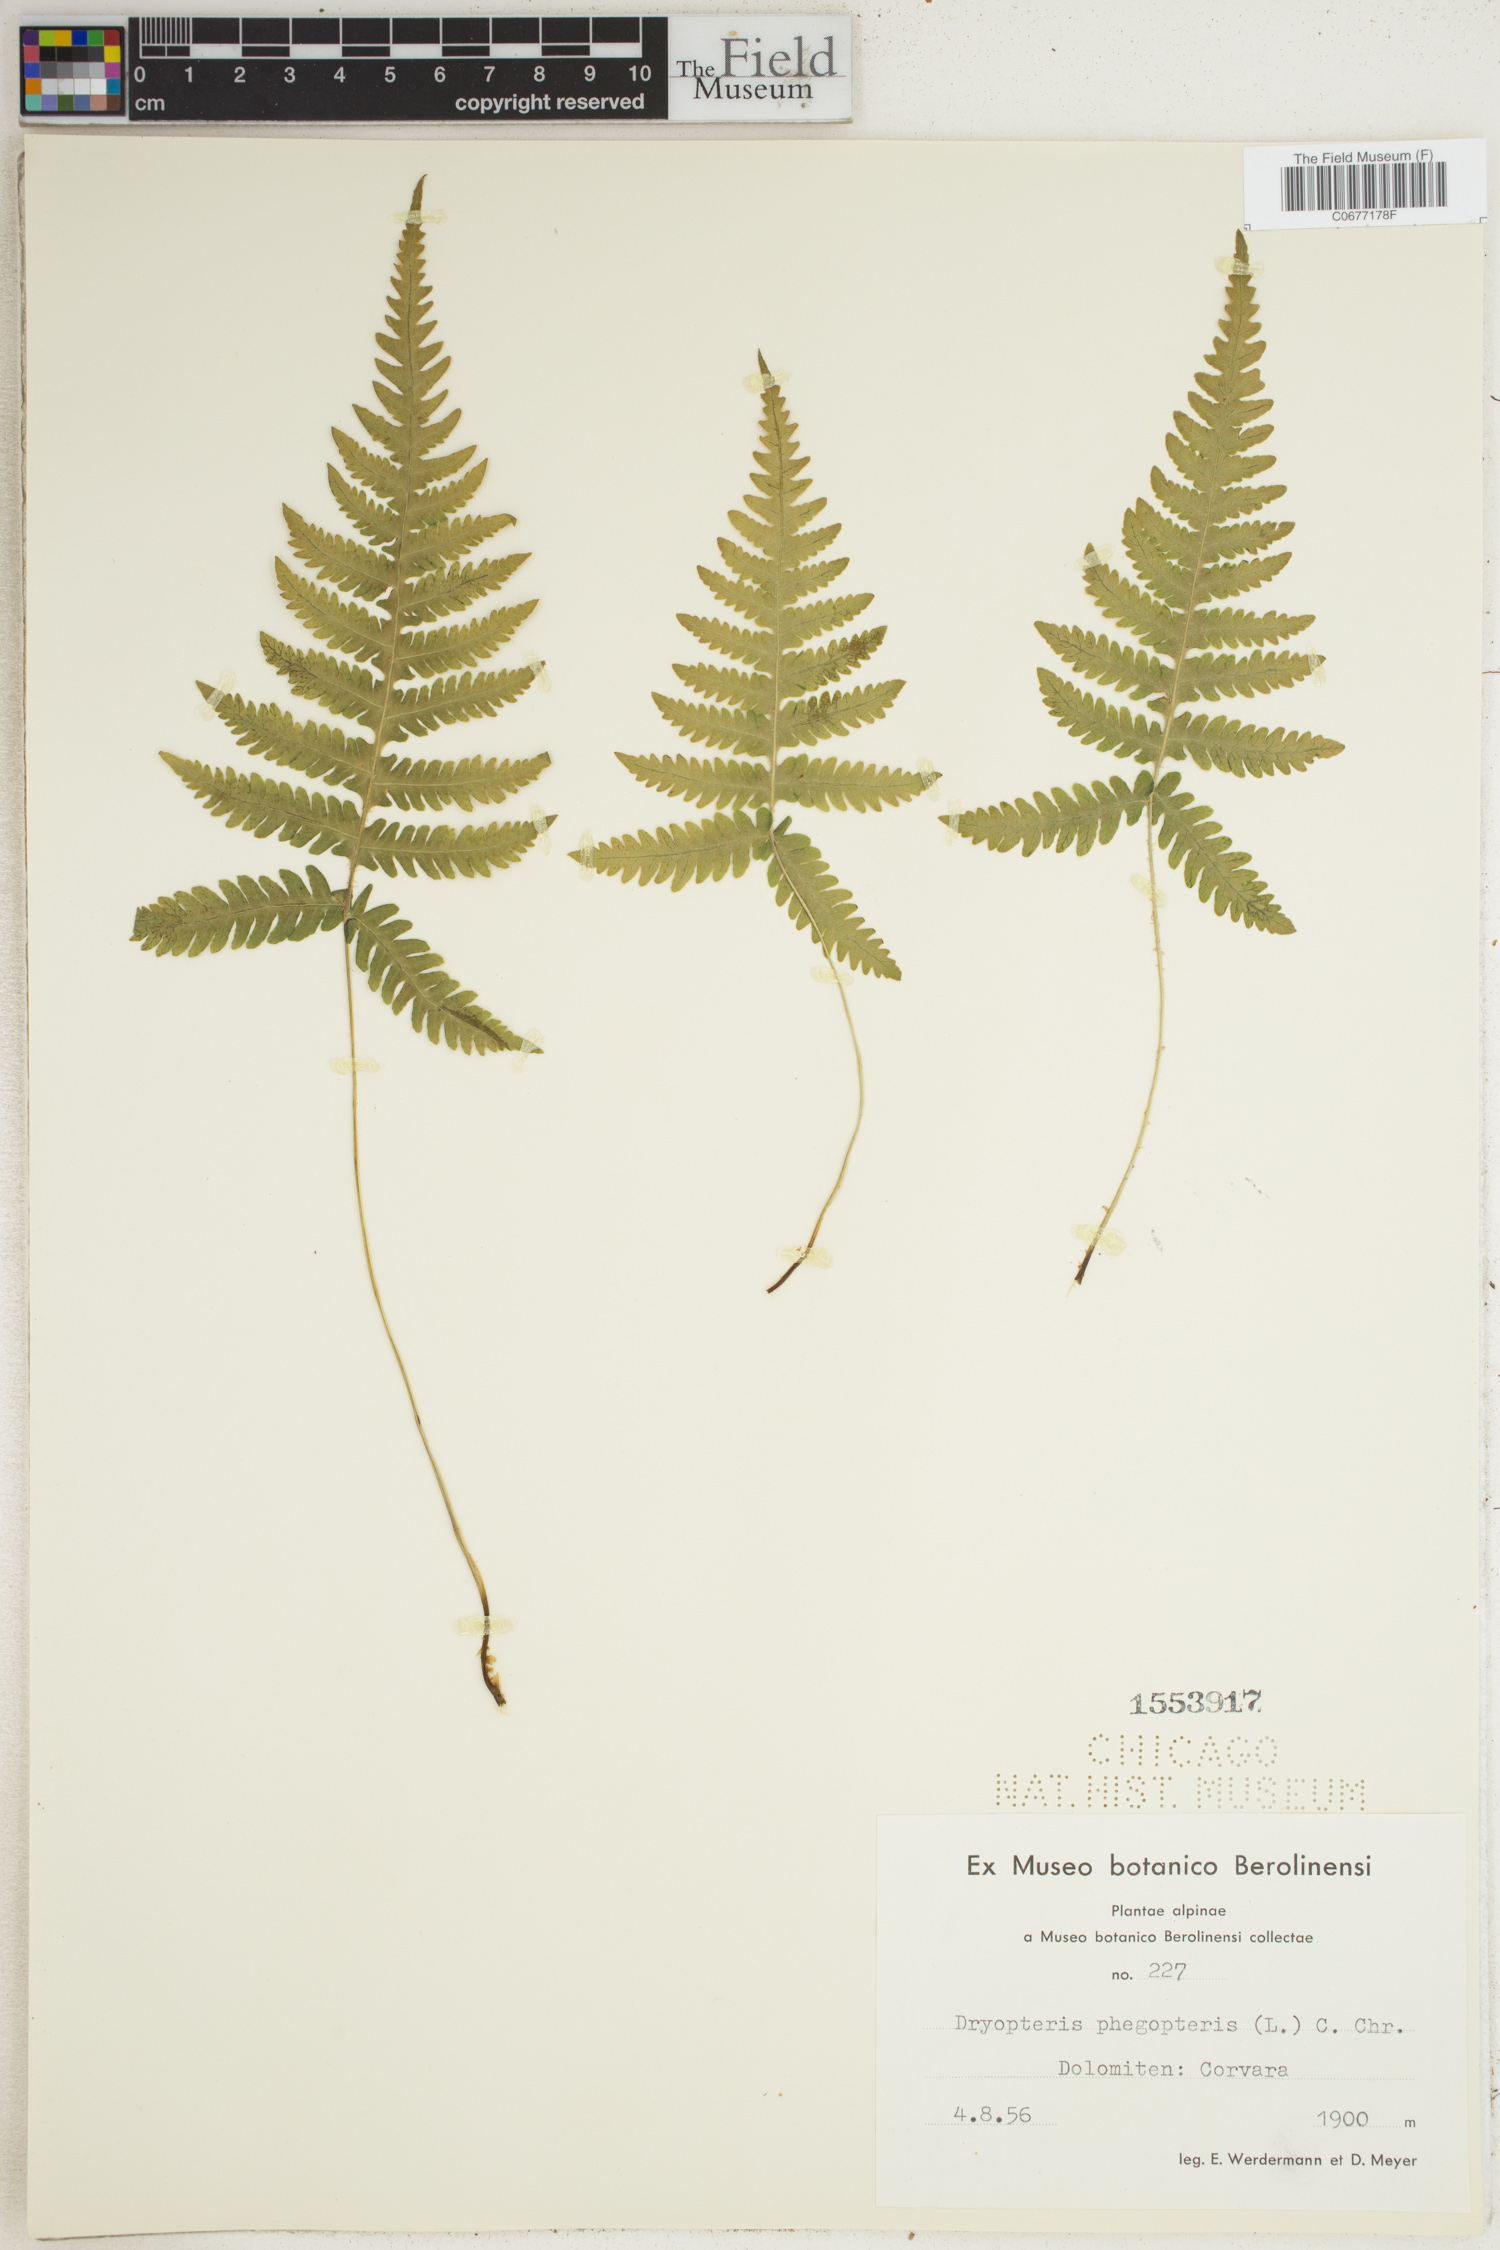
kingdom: Plantae
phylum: Tracheophyta
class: Polypodiopsida
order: Polypodiales
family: Thelypteridaceae
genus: Phegopteris
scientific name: Phegopteris connectilis
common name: Beech fern
